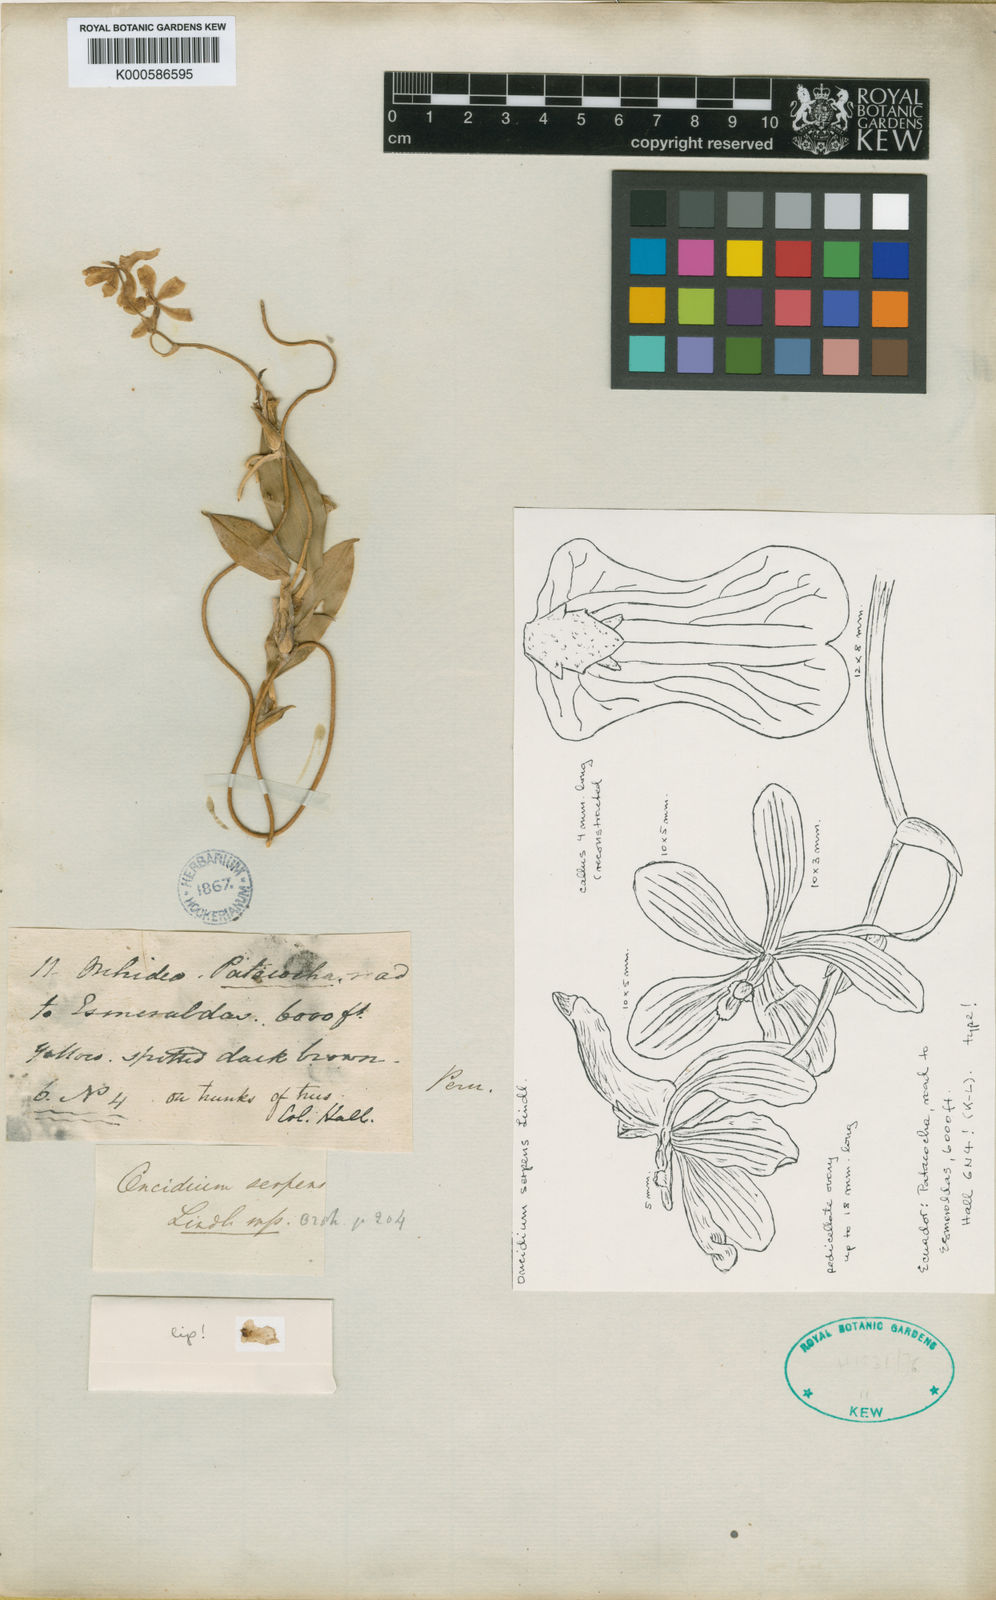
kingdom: Plantae
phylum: Tracheophyta
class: Liliopsida
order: Asparagales
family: Orchidaceae
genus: Otoglossum
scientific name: Otoglossum serpens
